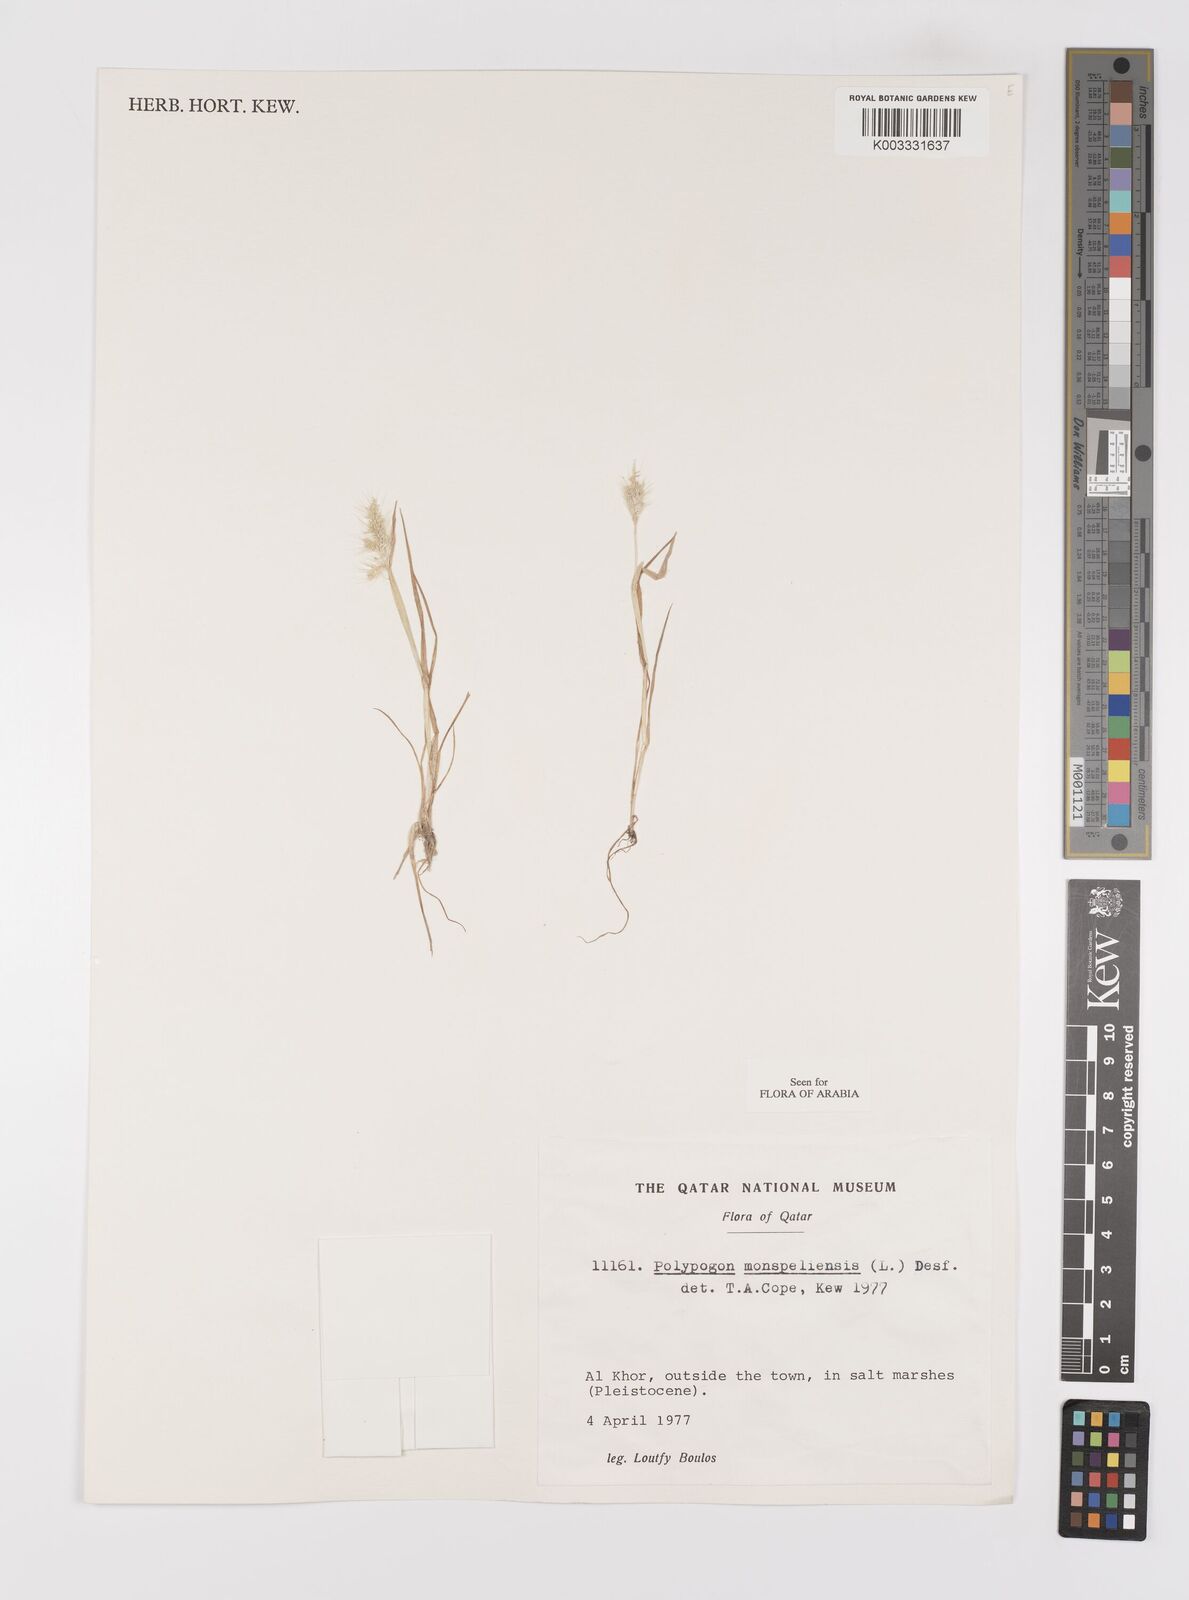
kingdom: Plantae
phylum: Tracheophyta
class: Liliopsida
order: Poales
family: Poaceae
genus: Polypogon
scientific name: Polypogon monspeliensis
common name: Annual rabbitsfoot grass
